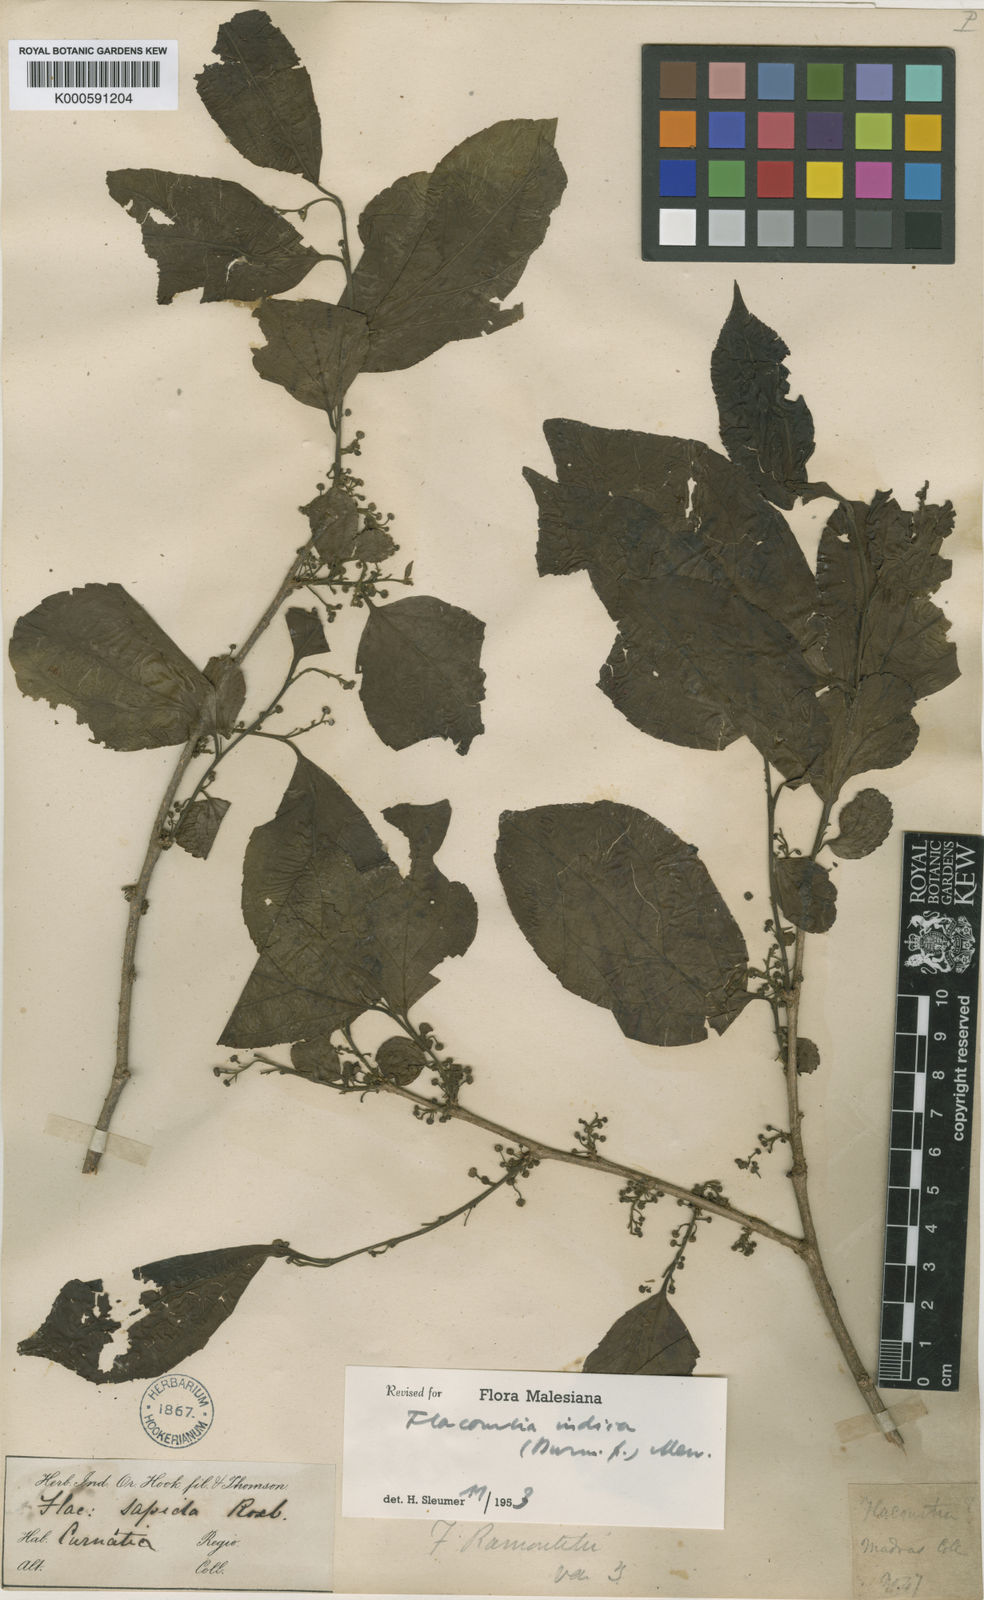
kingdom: Plantae
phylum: Tracheophyta
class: Magnoliopsida
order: Malpighiales
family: Salicaceae
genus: Flacourtia
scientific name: Flacourtia indica
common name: Governor's plum
